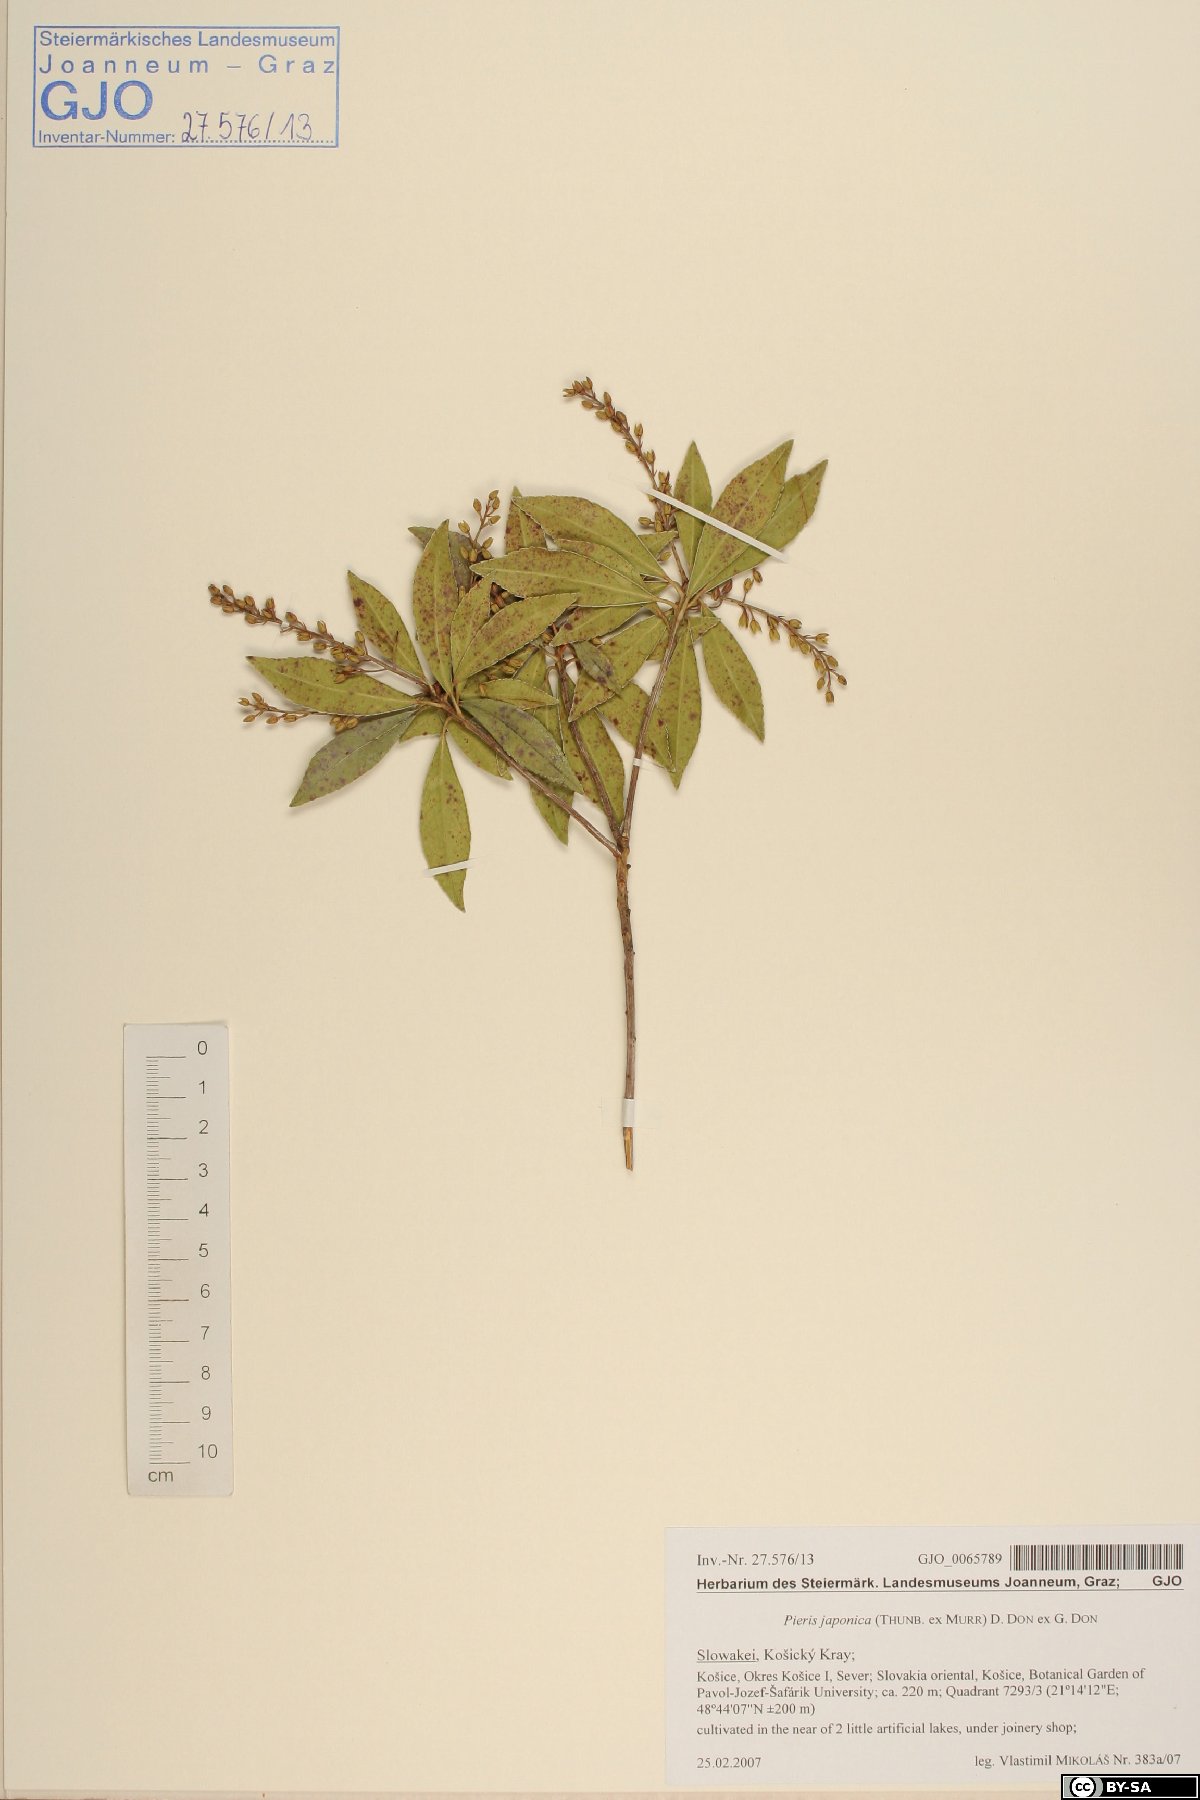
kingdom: Plantae
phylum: Tracheophyta
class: Magnoliopsida
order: Ericales
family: Ericaceae
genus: Pieris
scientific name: Pieris japonica
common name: Japanese pieris
